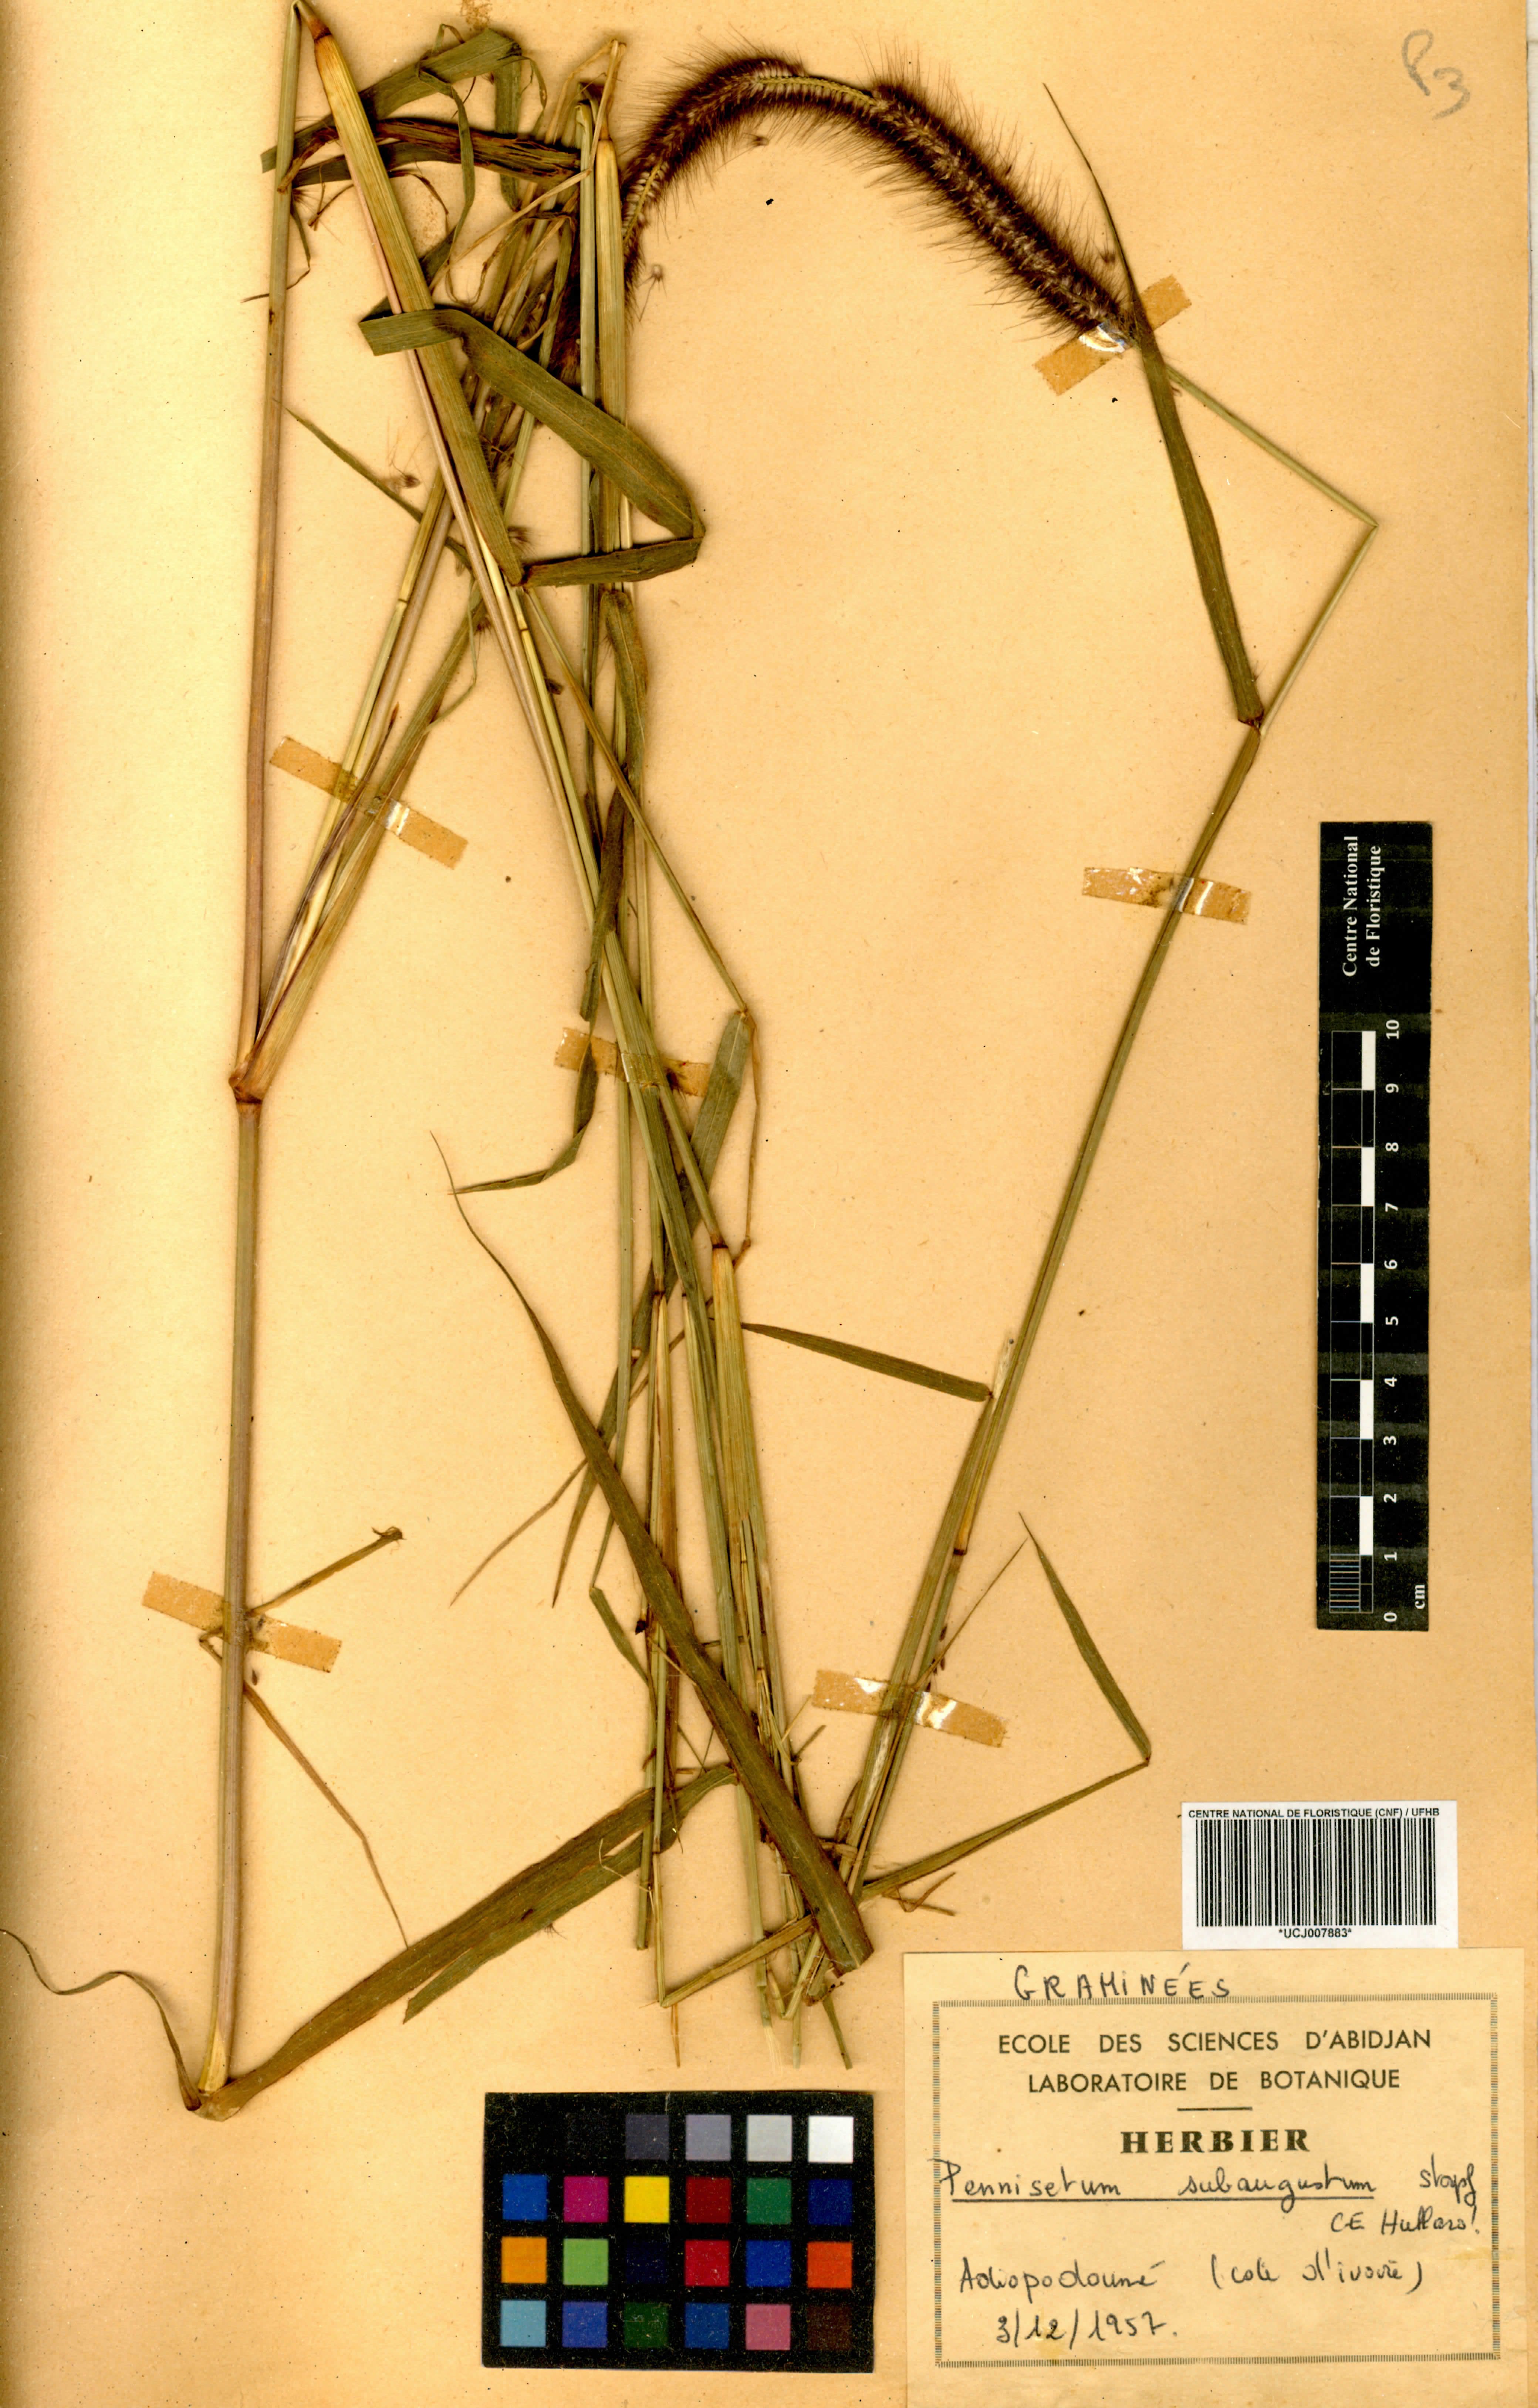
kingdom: Plantae
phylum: Tracheophyta
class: Liliopsida
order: Poales
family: Poaceae
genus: Cenchrus
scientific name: Cenchrus setosus
